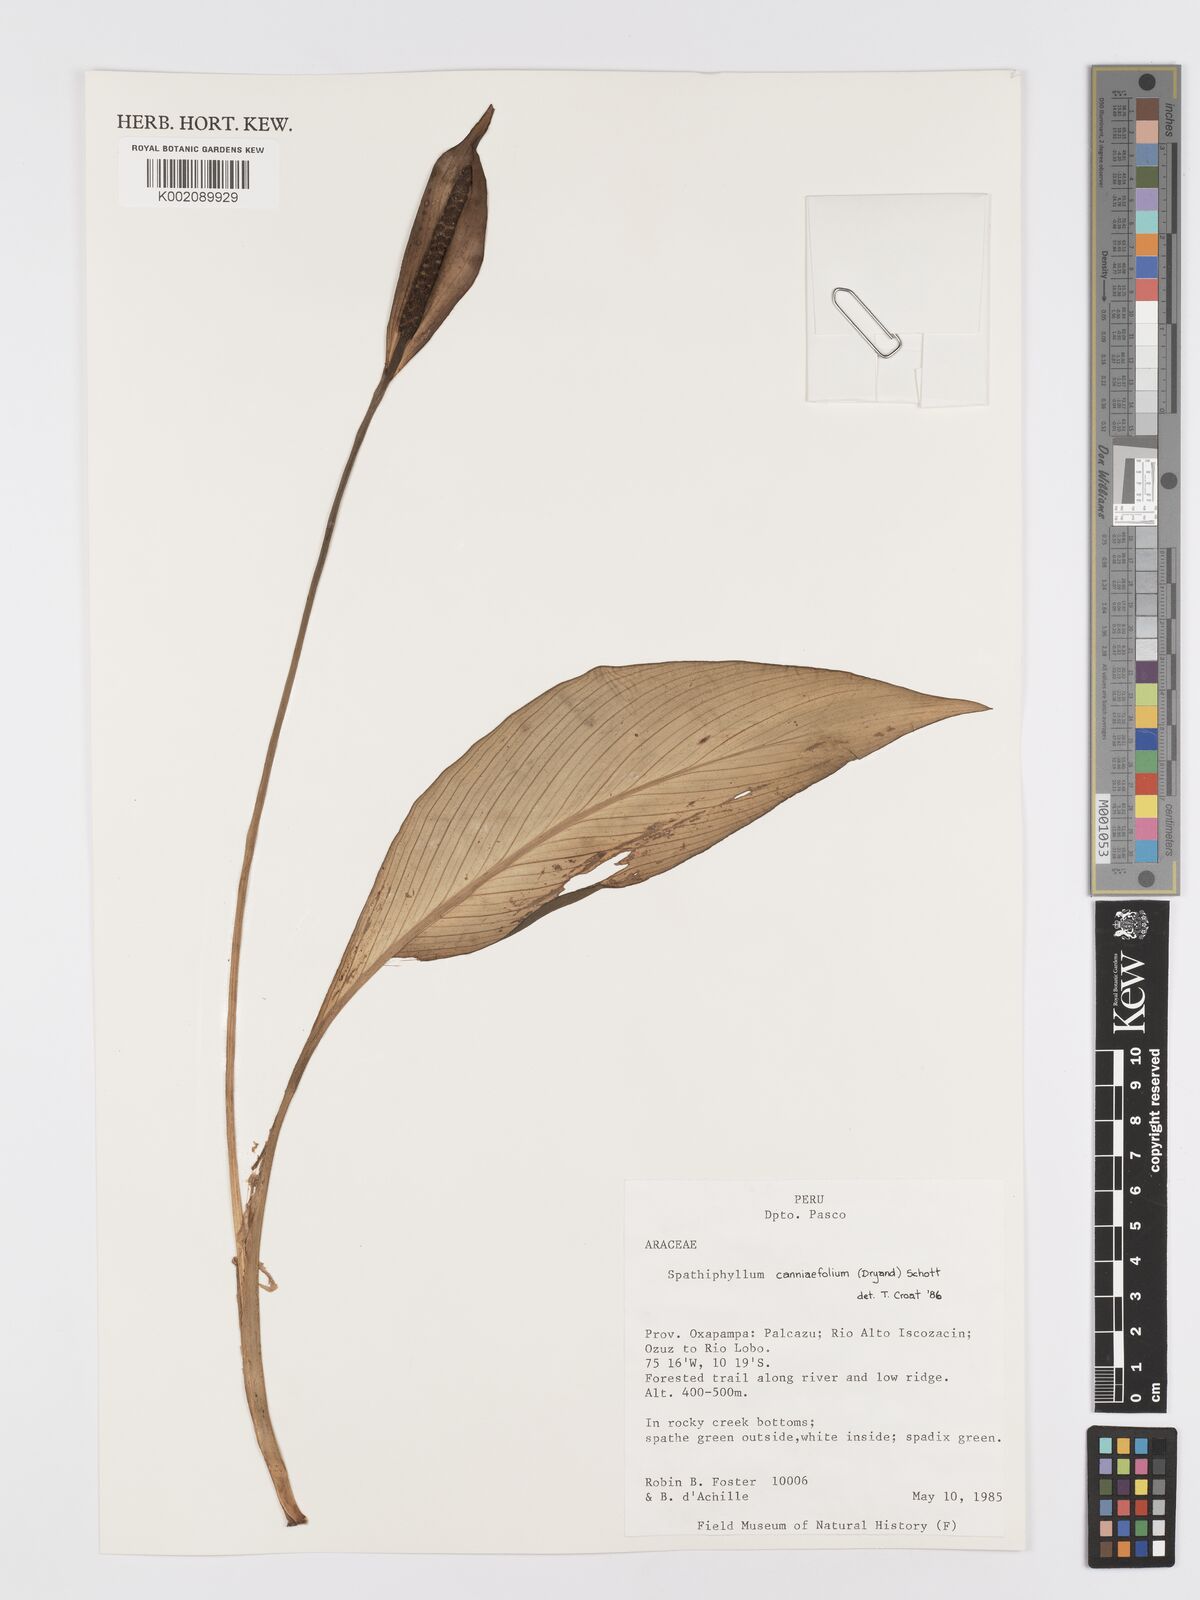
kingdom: Plantae
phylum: Tracheophyta
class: Liliopsida
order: Alismatales
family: Araceae
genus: Spathiphyllum
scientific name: Spathiphyllum cannifolium
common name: Spatheflower
